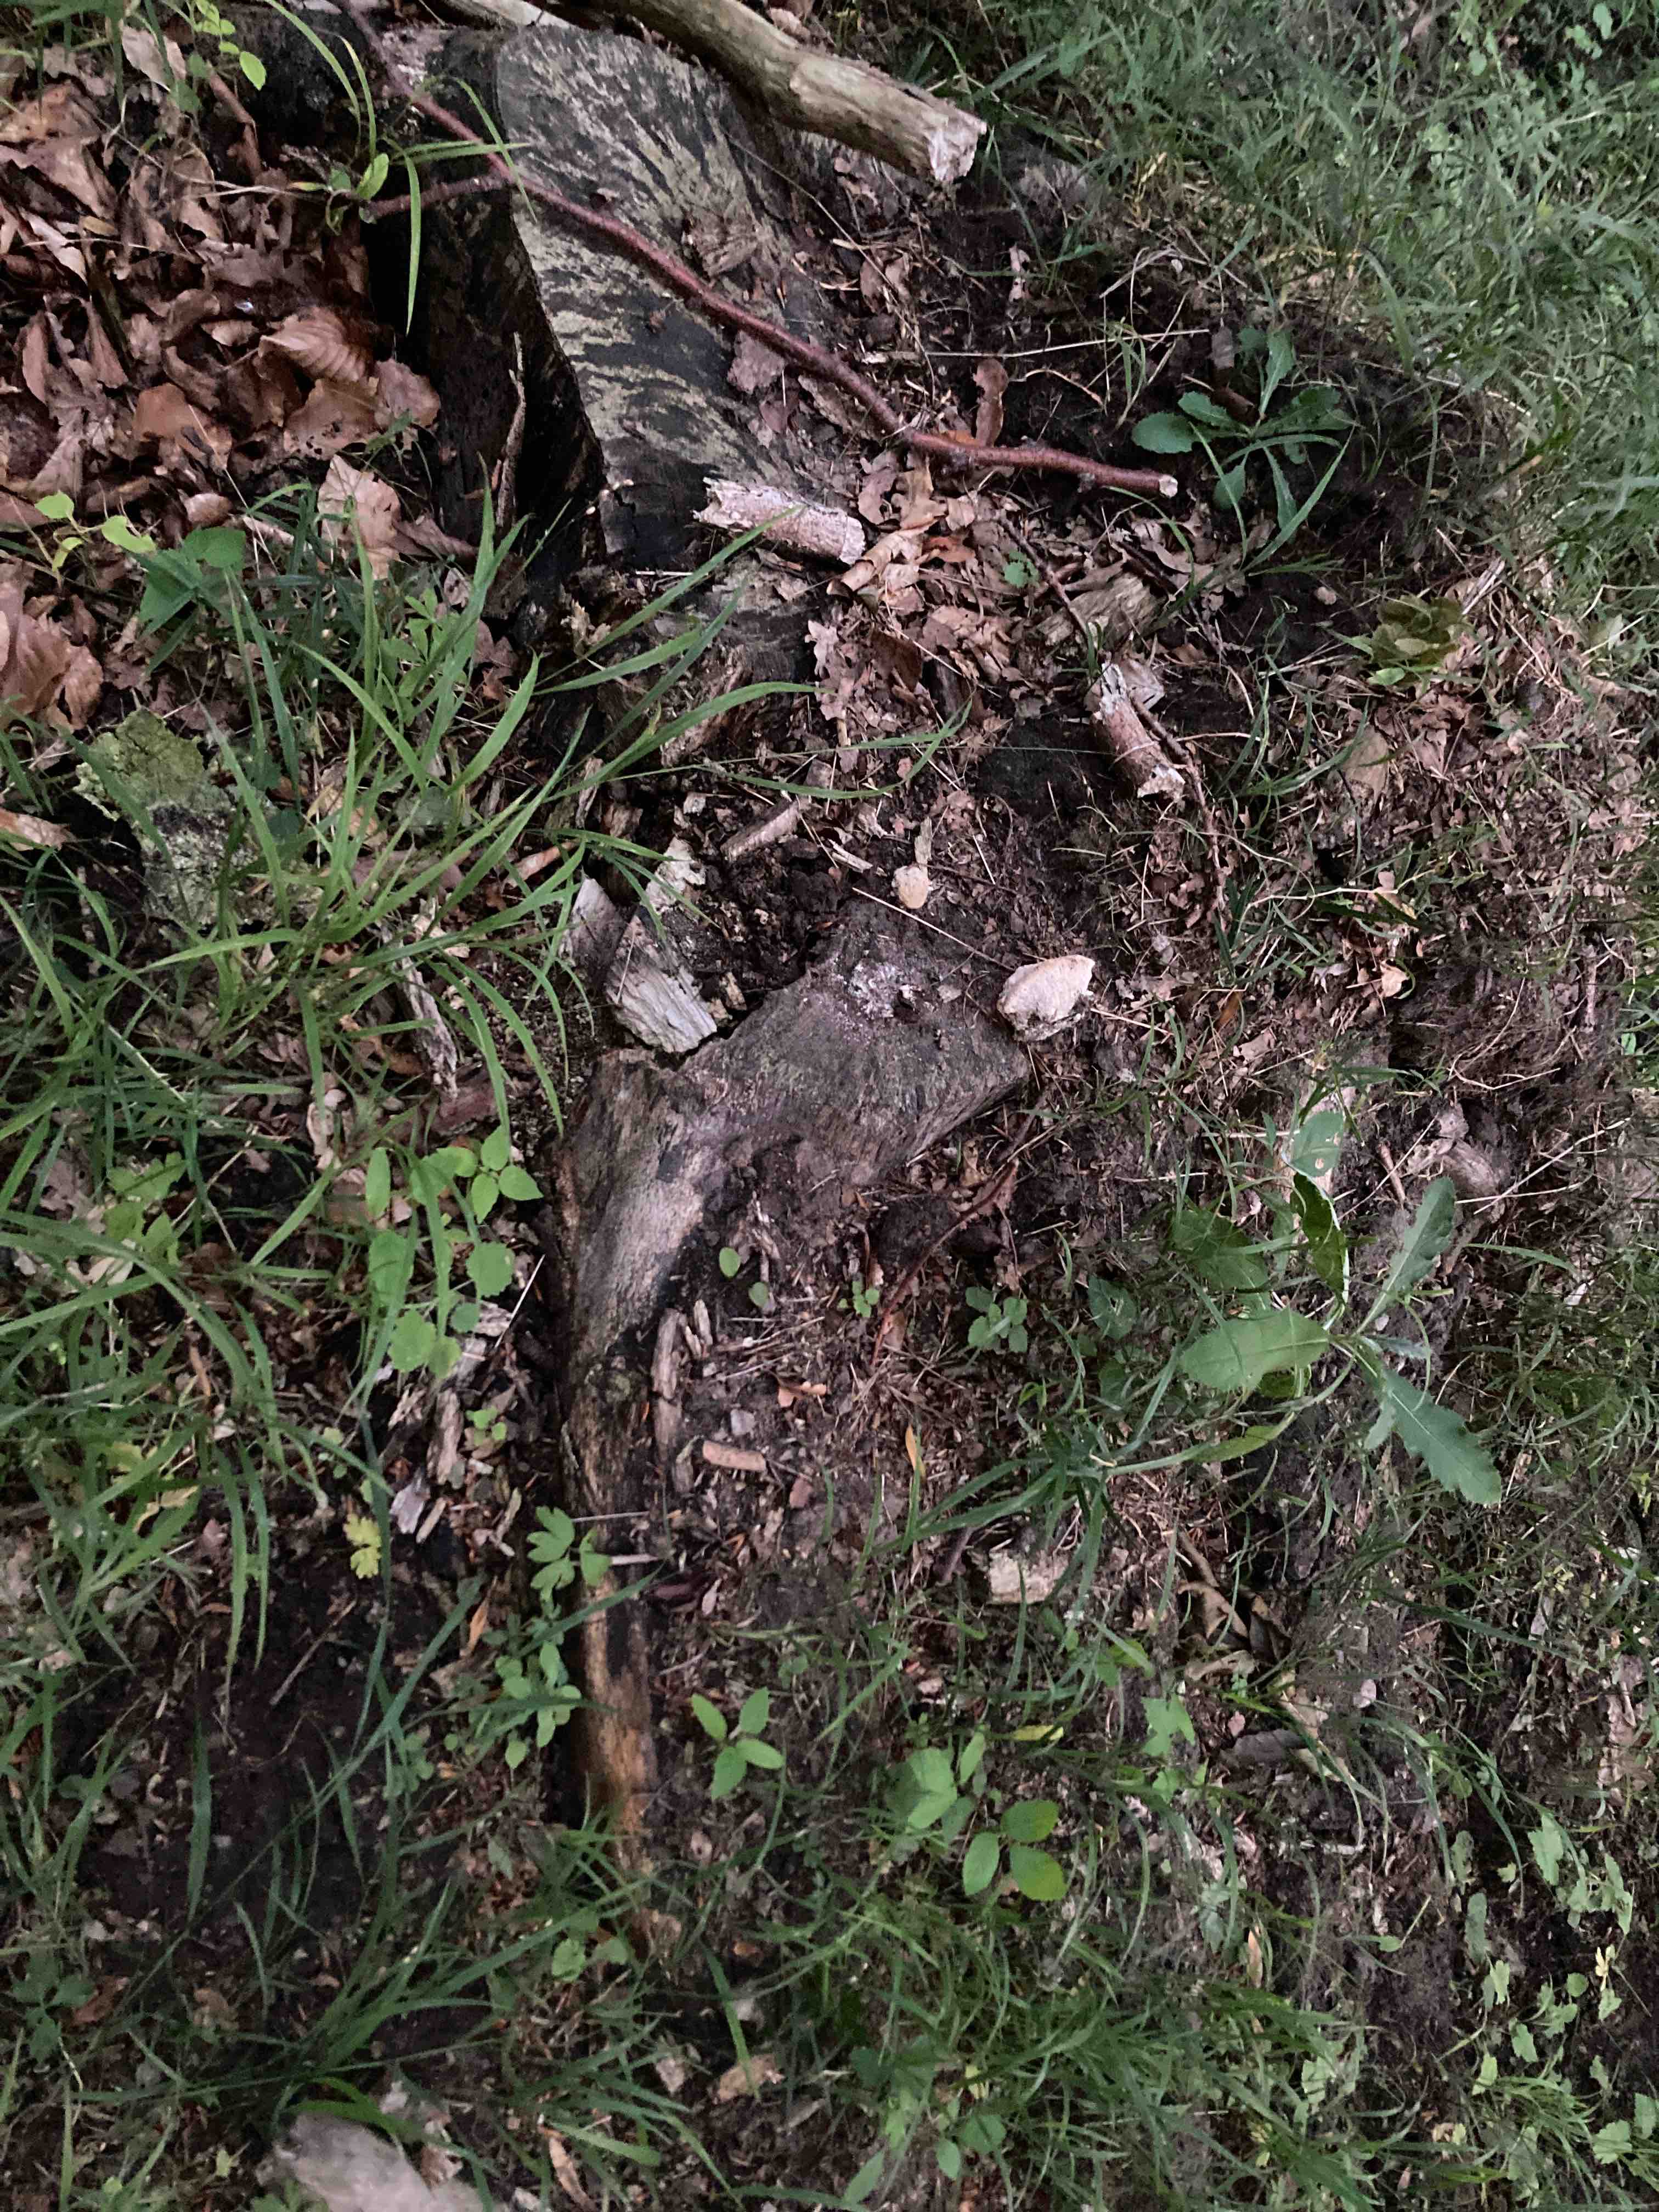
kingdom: Fungi
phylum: Basidiomycota
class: Agaricomycetes
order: Polyporales
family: Polyporaceae
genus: Trametes
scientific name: Trametes gibbosa
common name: puklet læderporesvamp
